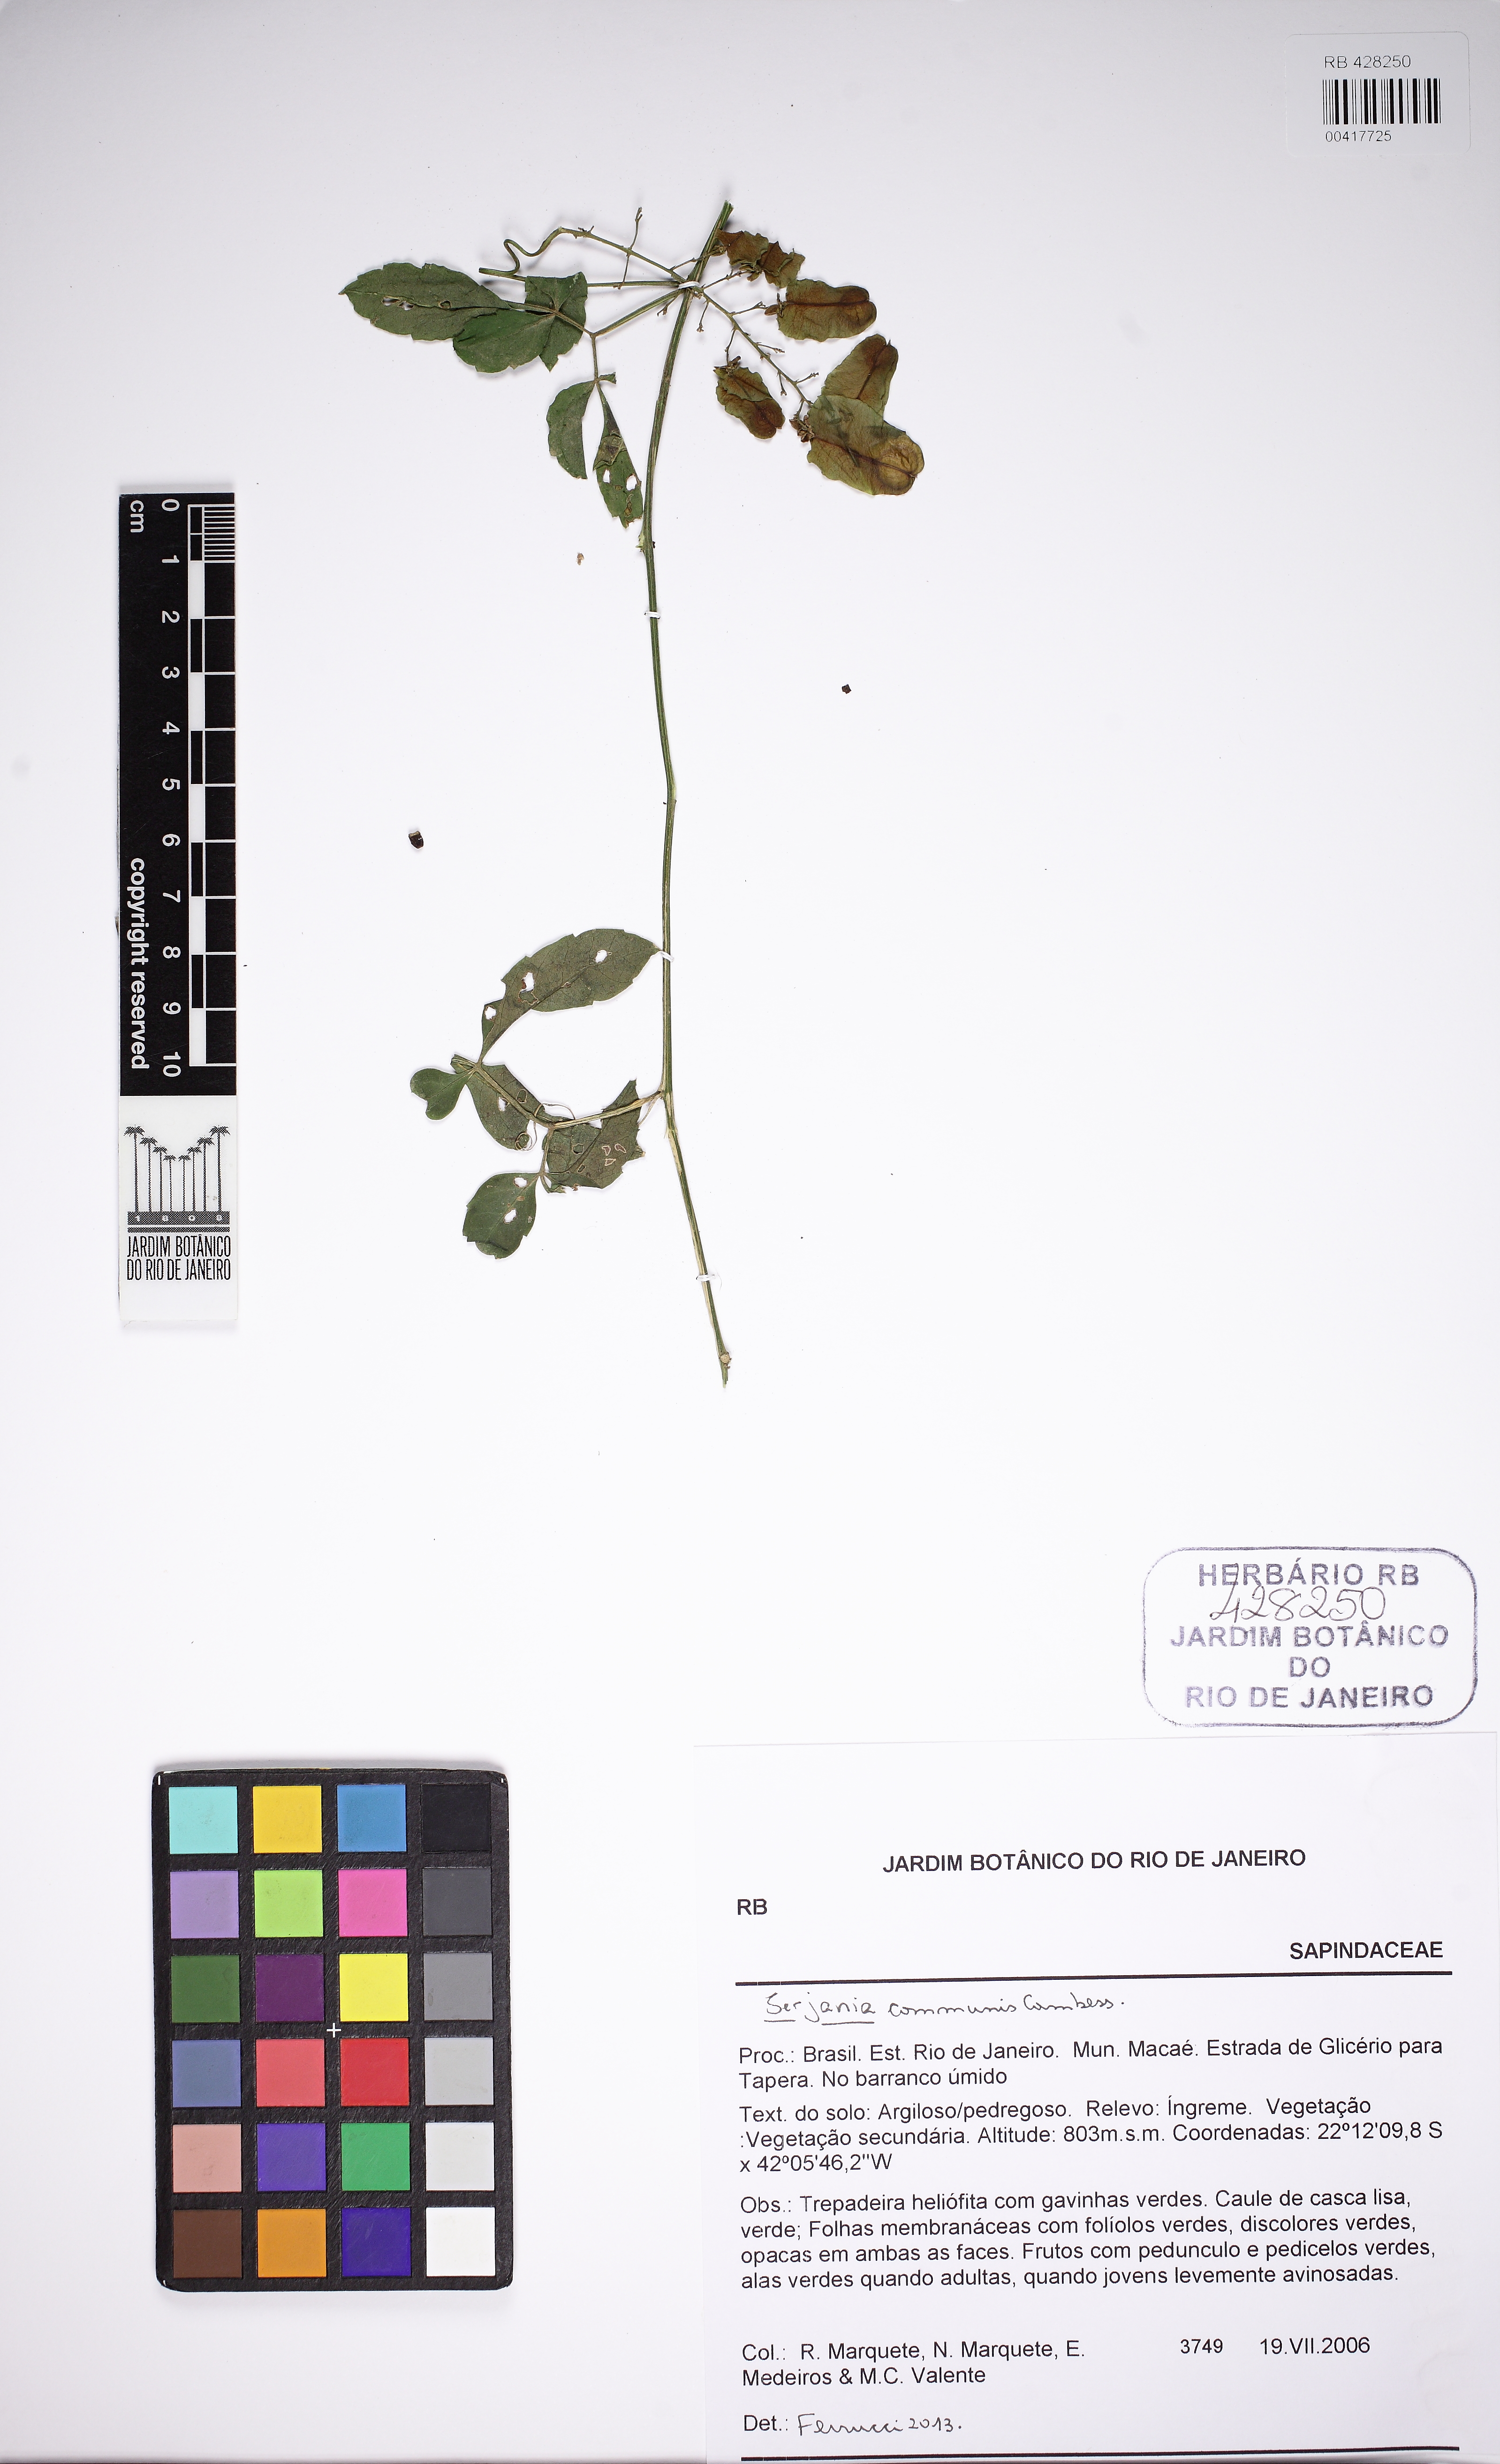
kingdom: Plantae
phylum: Tracheophyta
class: Magnoliopsida
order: Sapindales
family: Sapindaceae
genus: Serjania
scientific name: Serjania communis
